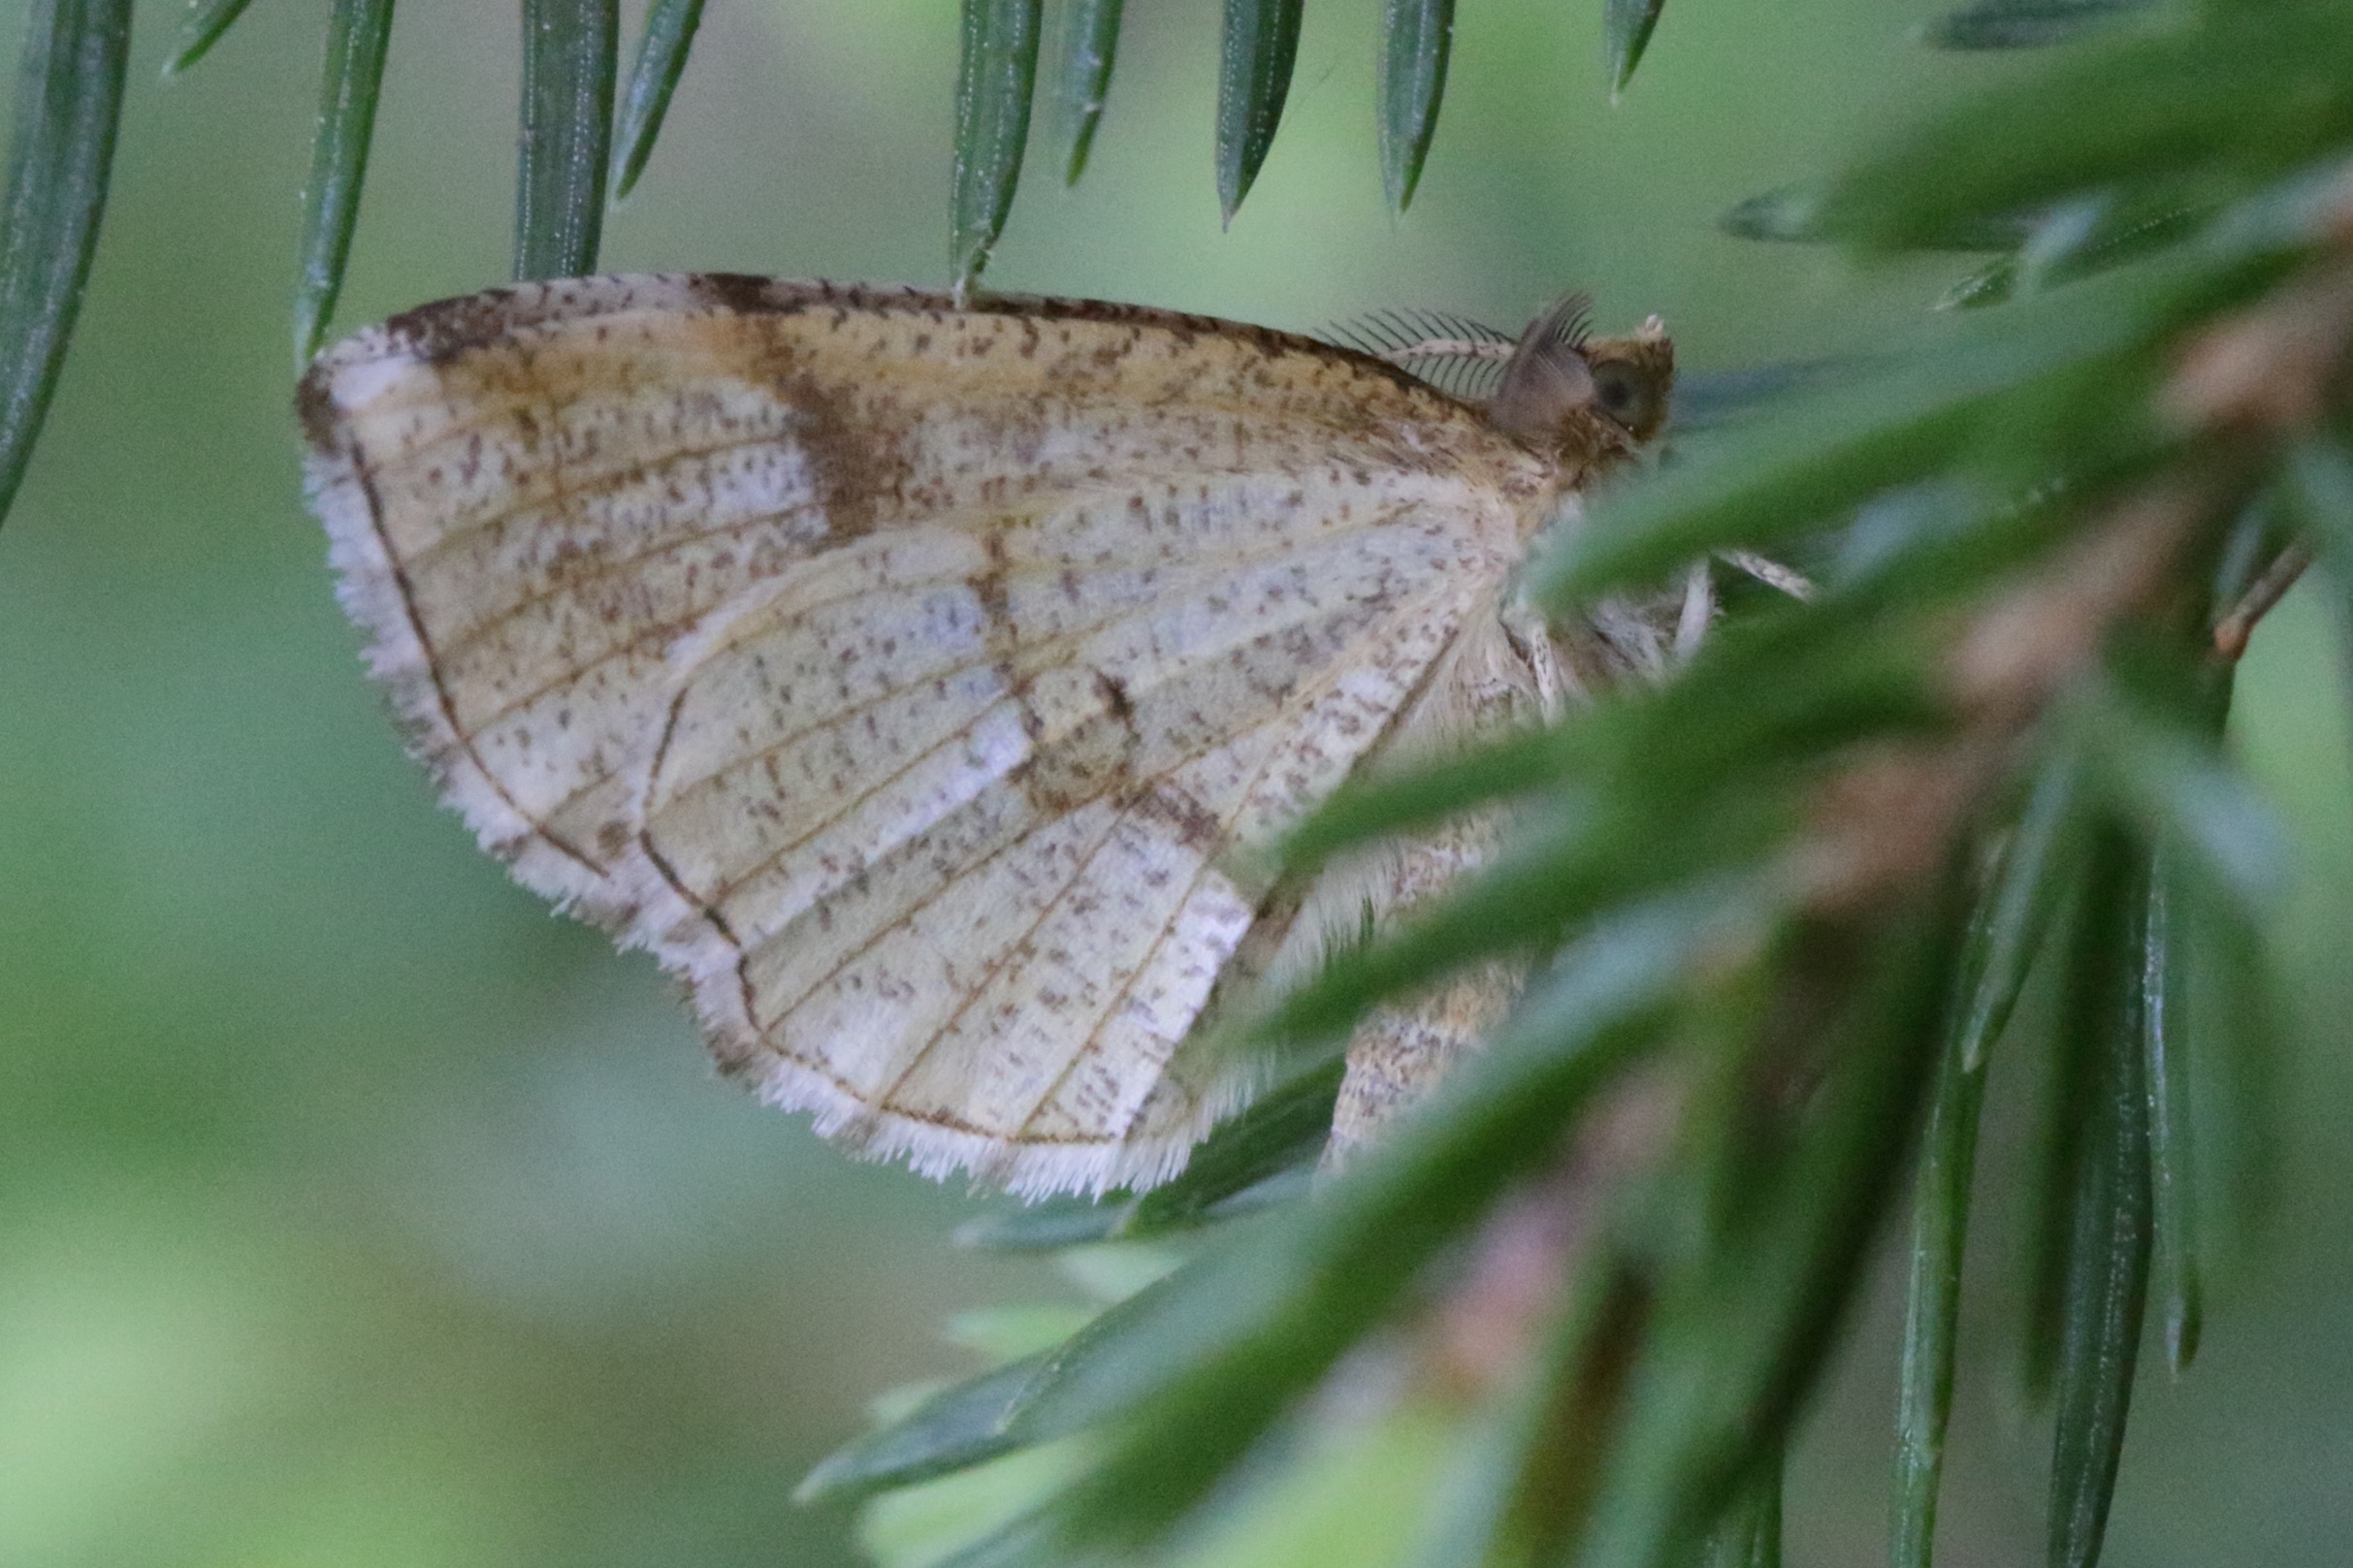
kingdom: Animalia
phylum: Arthropoda
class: Insecta
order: Lepidoptera
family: Geometridae
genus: Cepphis
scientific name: Cepphis advenaria
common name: Hvidgrå blåbærmåler
